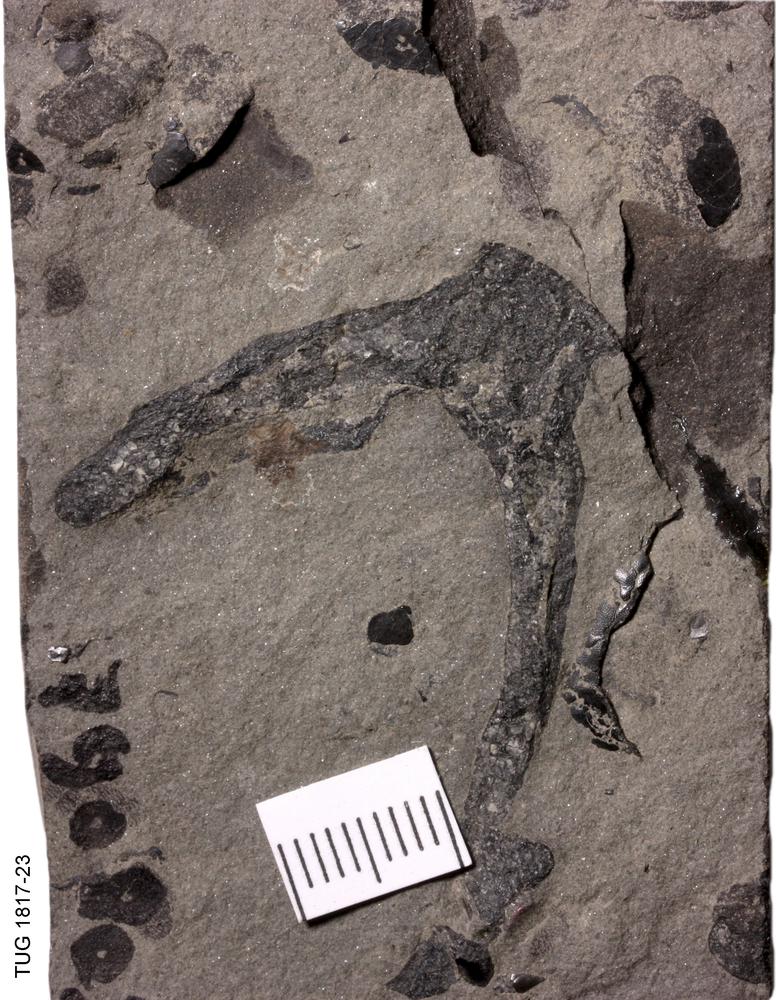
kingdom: Animalia
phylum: Chordata
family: Dipteridae
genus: Dipterus
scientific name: Dipterus valenciennesi
